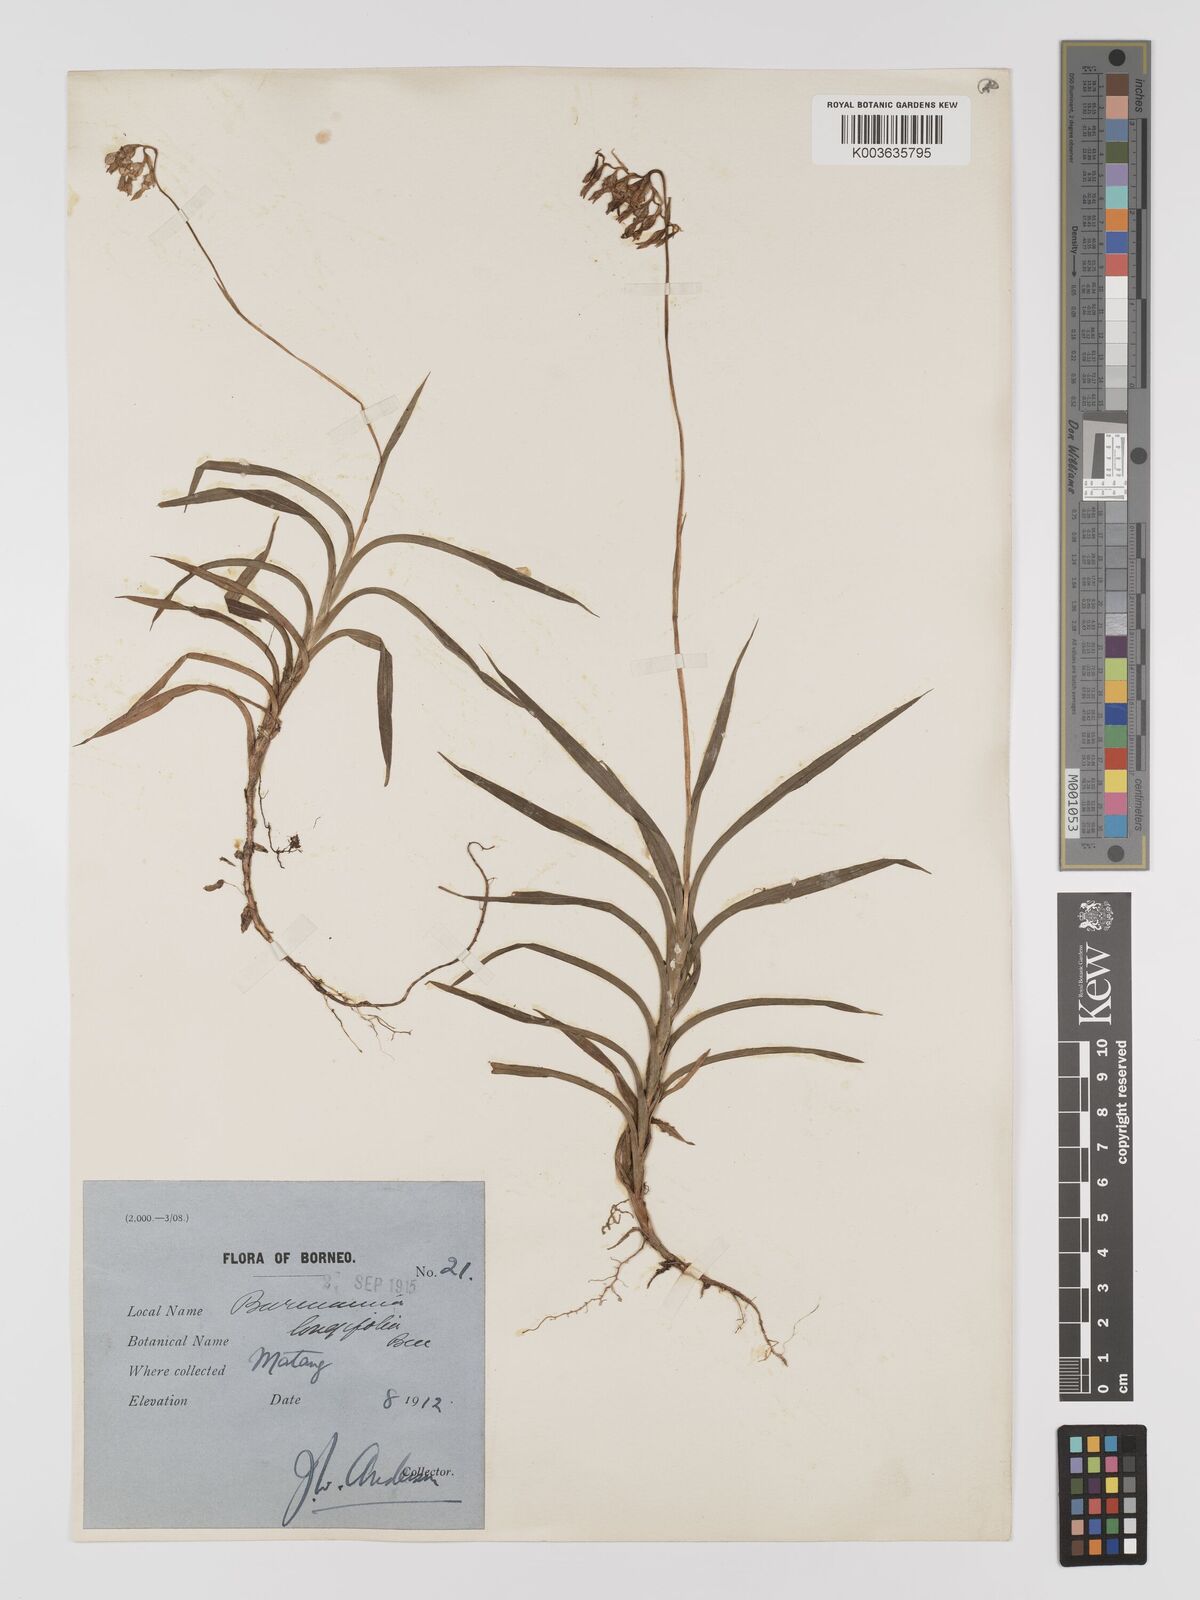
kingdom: Plantae
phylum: Tracheophyta
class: Liliopsida
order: Dioscoreales
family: Burmanniaceae
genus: Burmannia
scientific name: Burmannia longifolia
